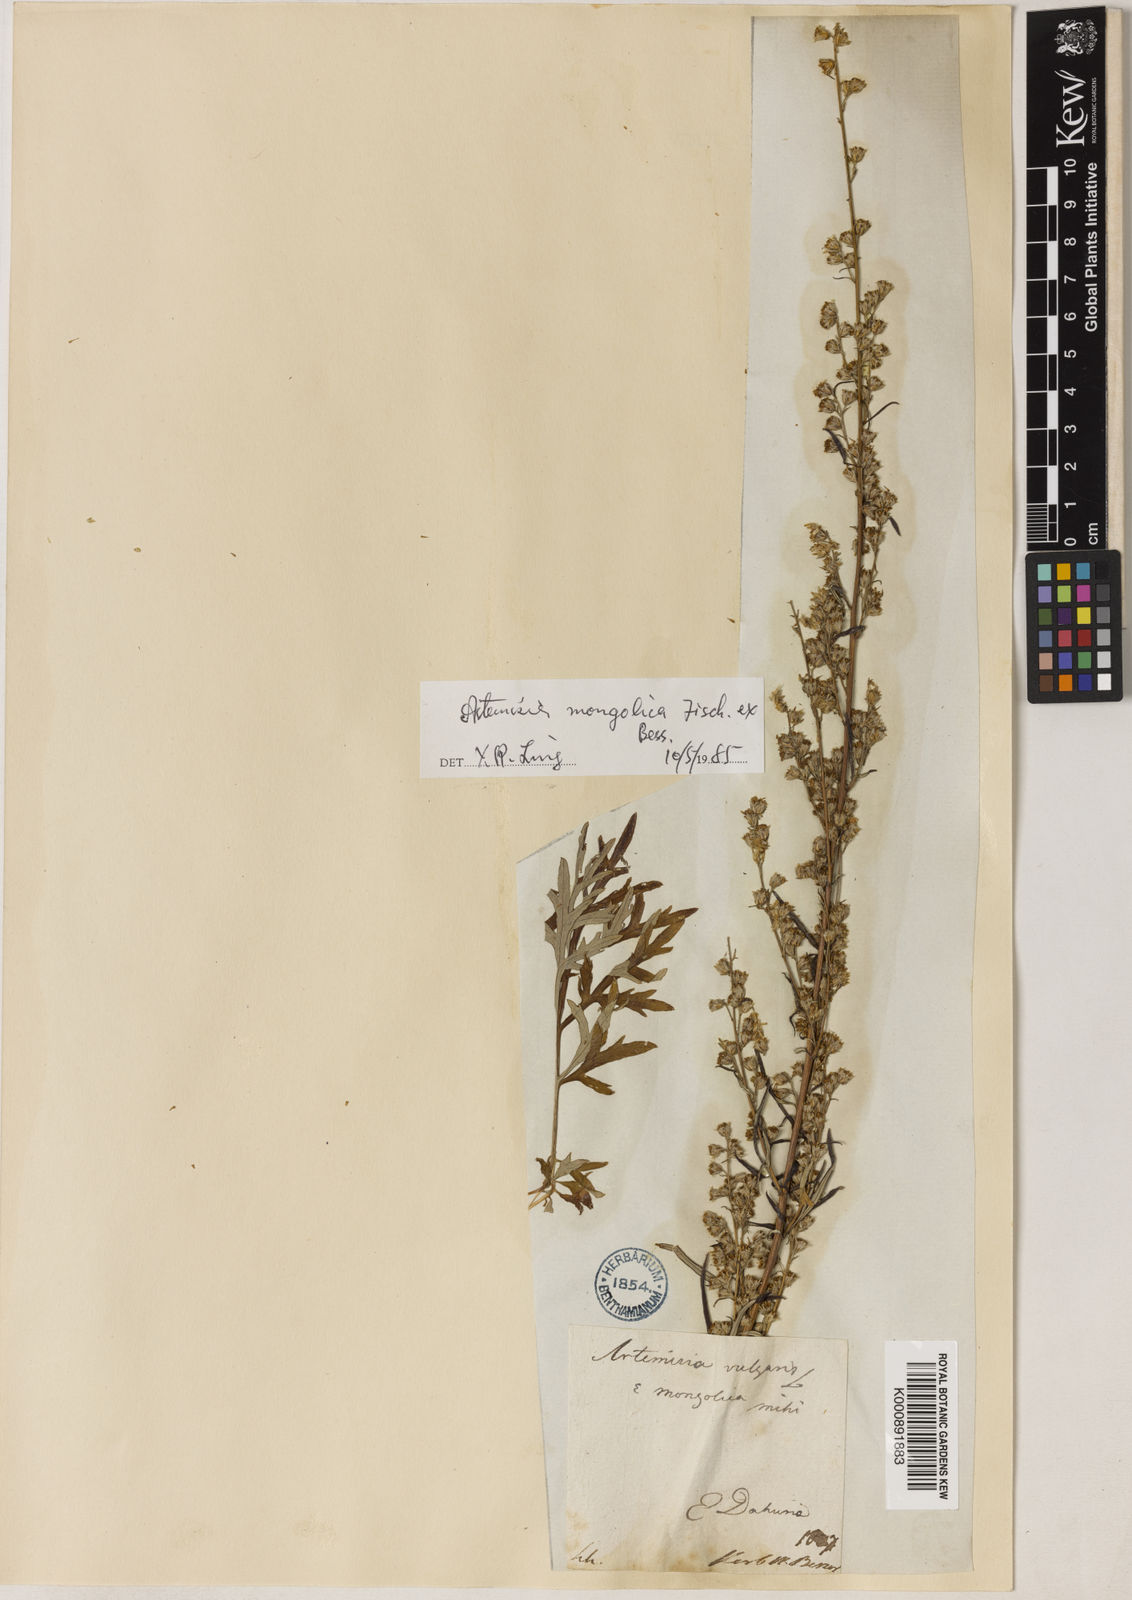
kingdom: Plantae
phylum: Tracheophyta
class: Magnoliopsida
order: Asterales
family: Asteraceae
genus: Artemisia
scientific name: Artemisia mongolica
